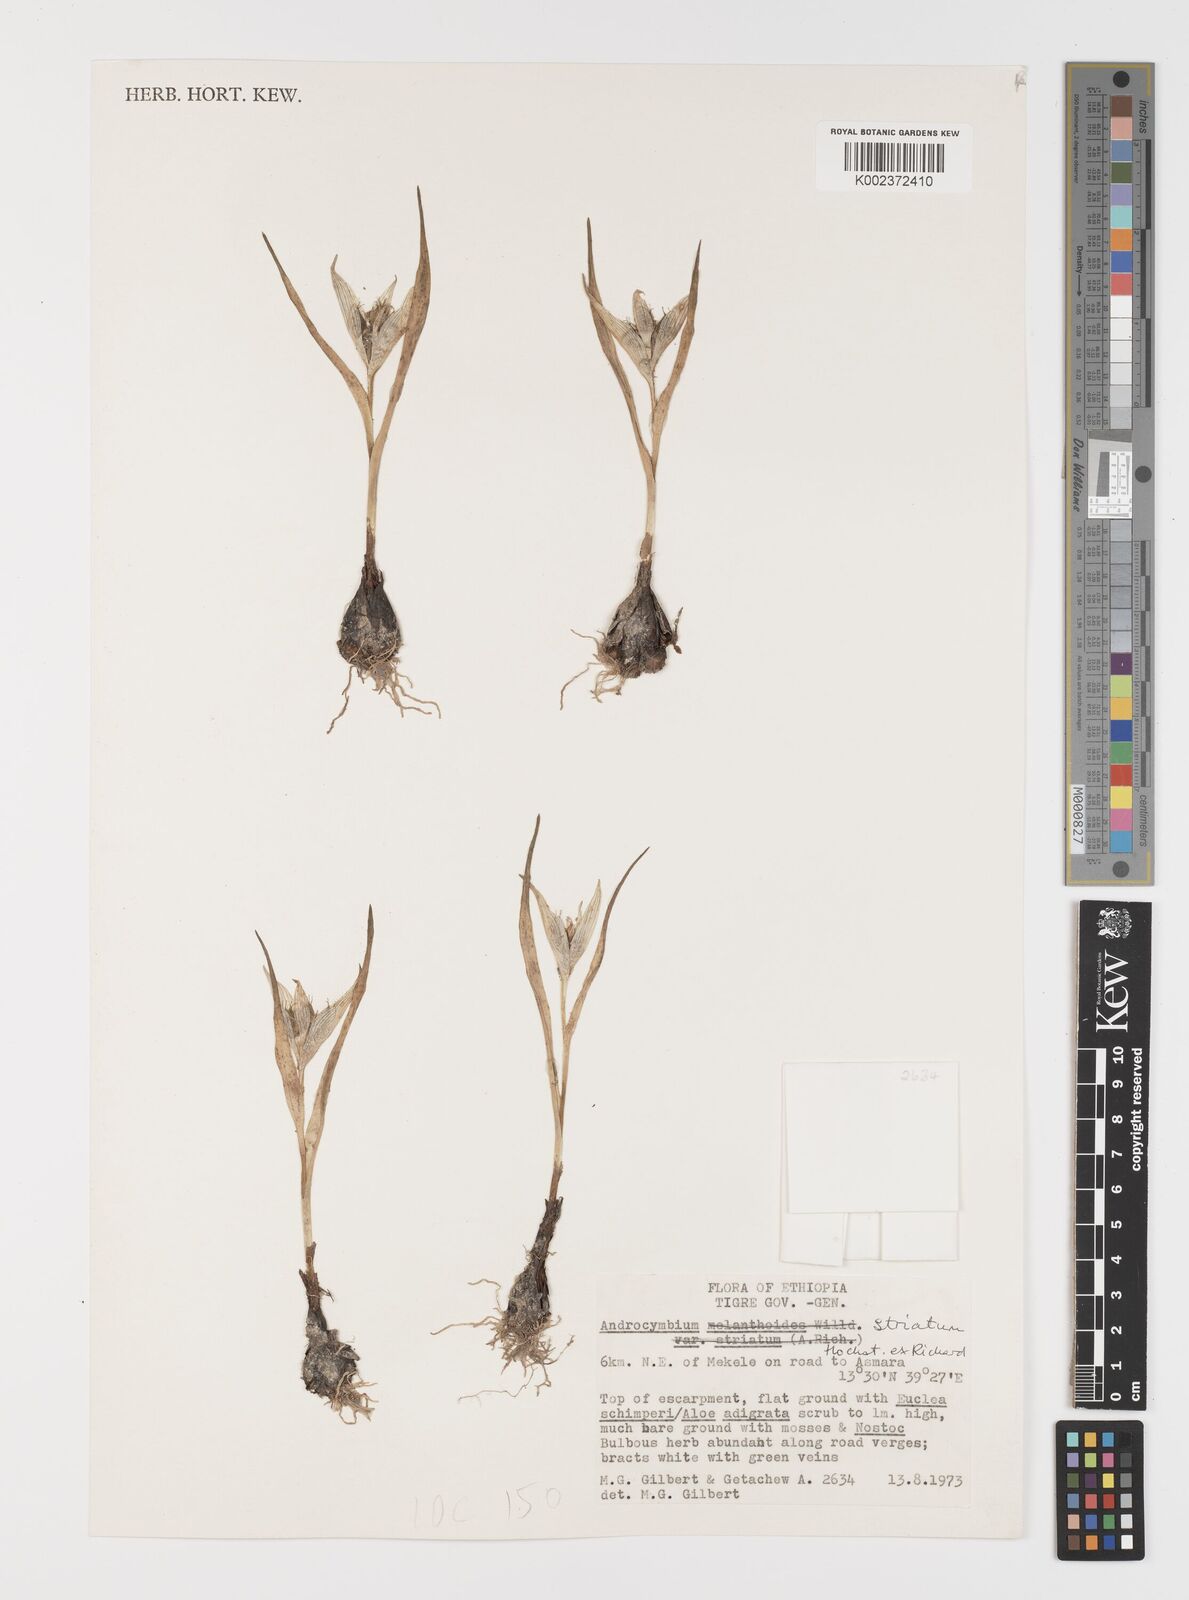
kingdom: Plantae
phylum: Tracheophyta
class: Liliopsida
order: Liliales
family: Colchicaceae
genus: Colchicum
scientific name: Colchicum striatum
